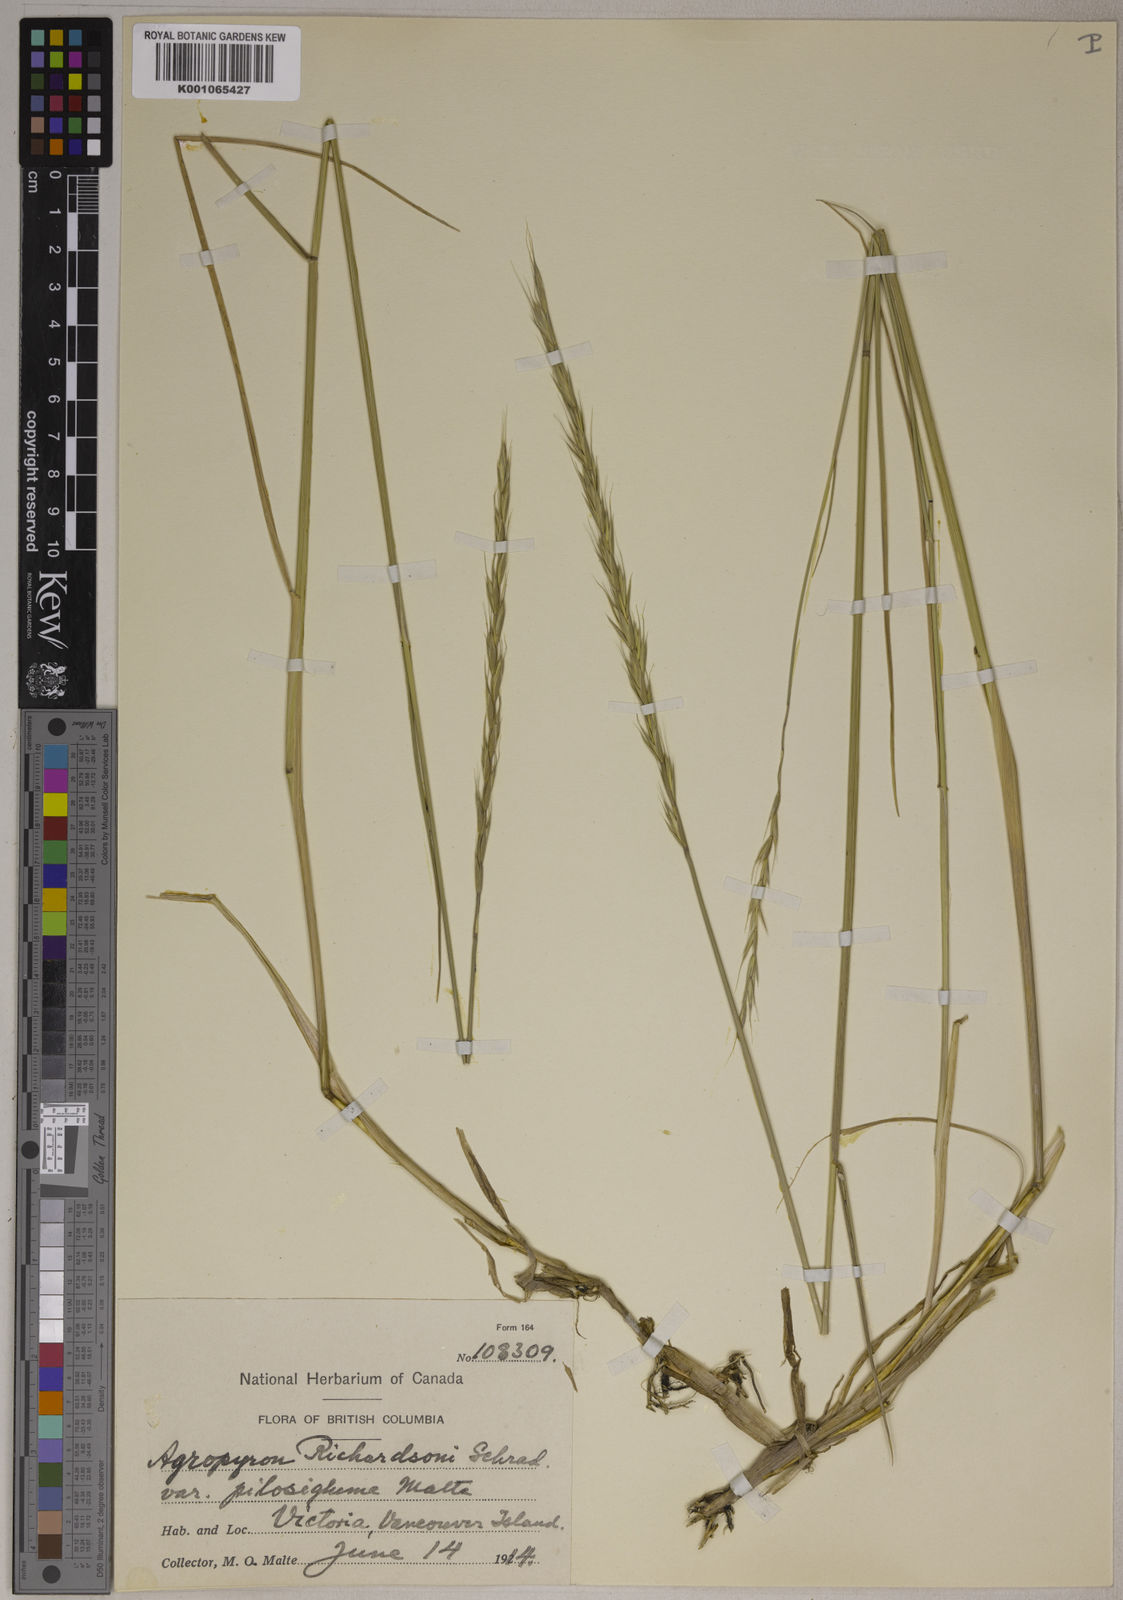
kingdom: Plantae
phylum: Tracheophyta
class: Liliopsida
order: Poales
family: Poaceae
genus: Elymus
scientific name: Elymus
